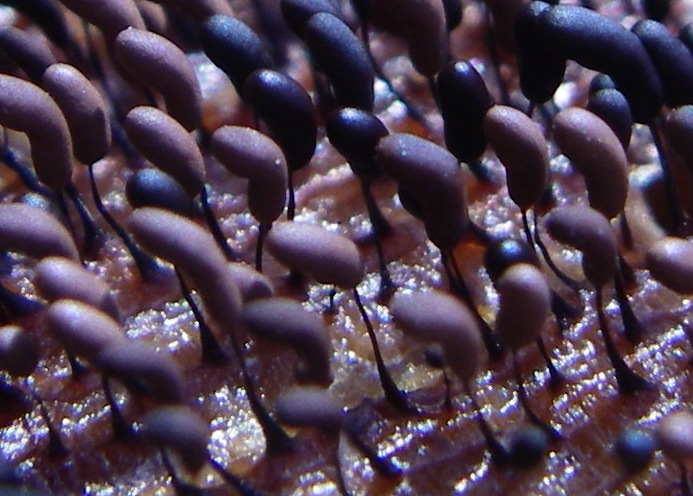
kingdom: Protozoa
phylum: Mycetozoa
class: Myxomycetes
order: Stemonitidales
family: Stemonitidaceae
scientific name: Stemonitidaceae
